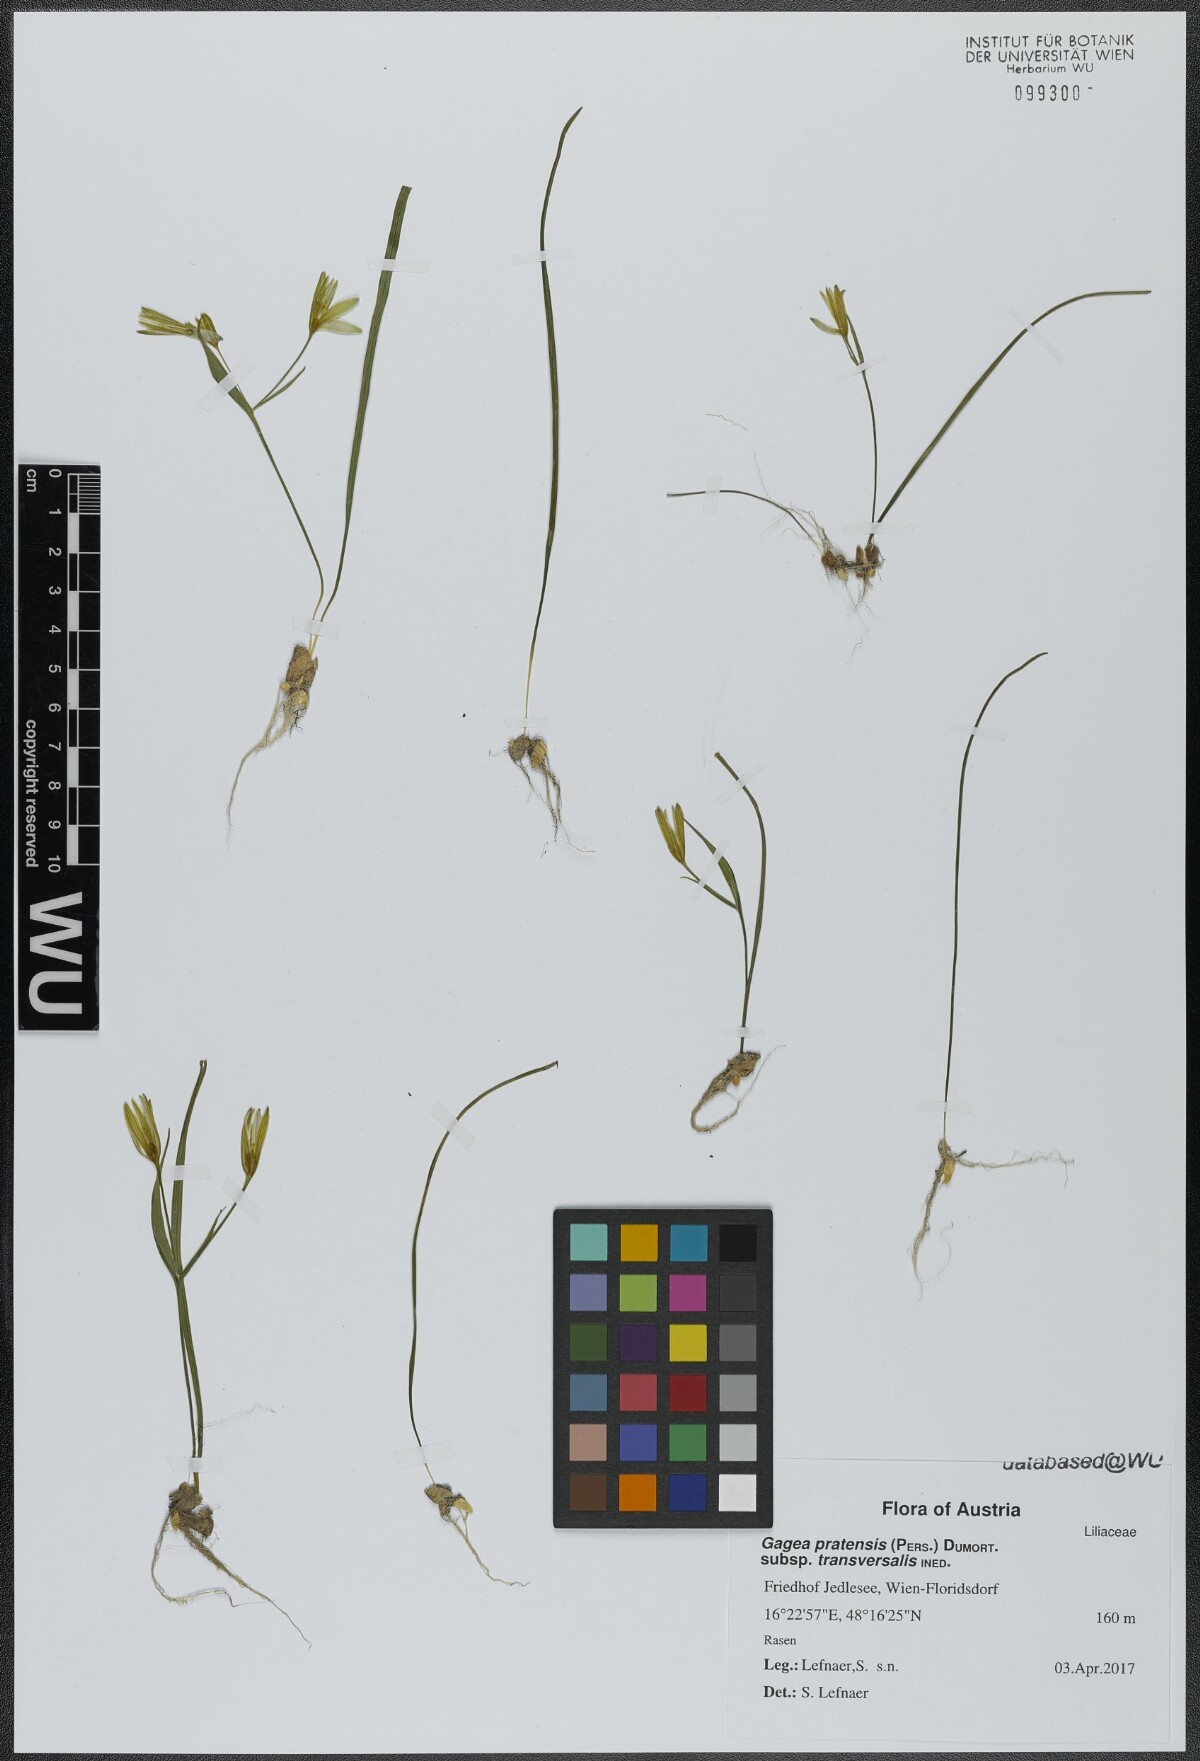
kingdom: Plantae
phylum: Tracheophyta
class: Liliopsida
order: Liliales
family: Liliaceae
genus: Gagea
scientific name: Gagea pratensis
